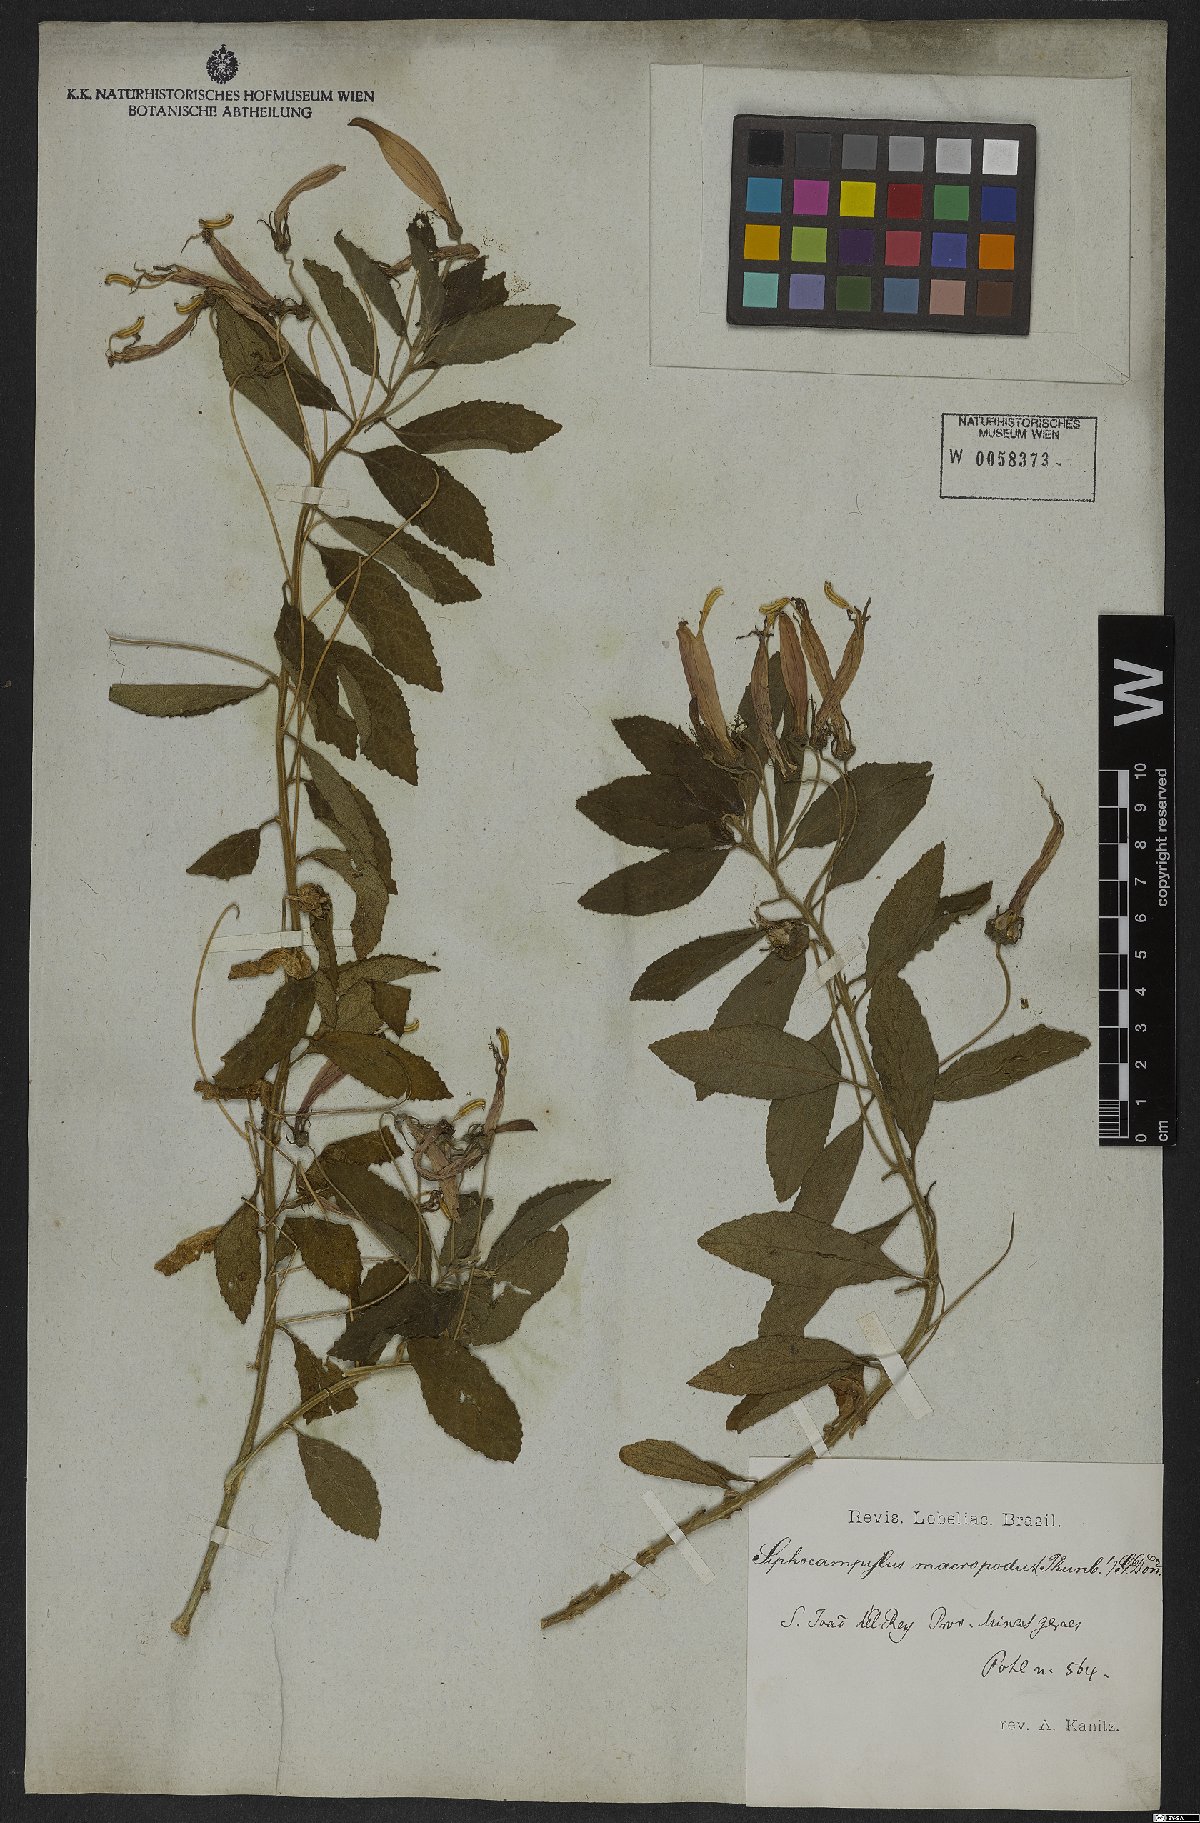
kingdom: Plantae
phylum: Tracheophyta
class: Magnoliopsida
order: Asterales
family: Campanulaceae
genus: Siphocampylus
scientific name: Siphocampylus macropodus
